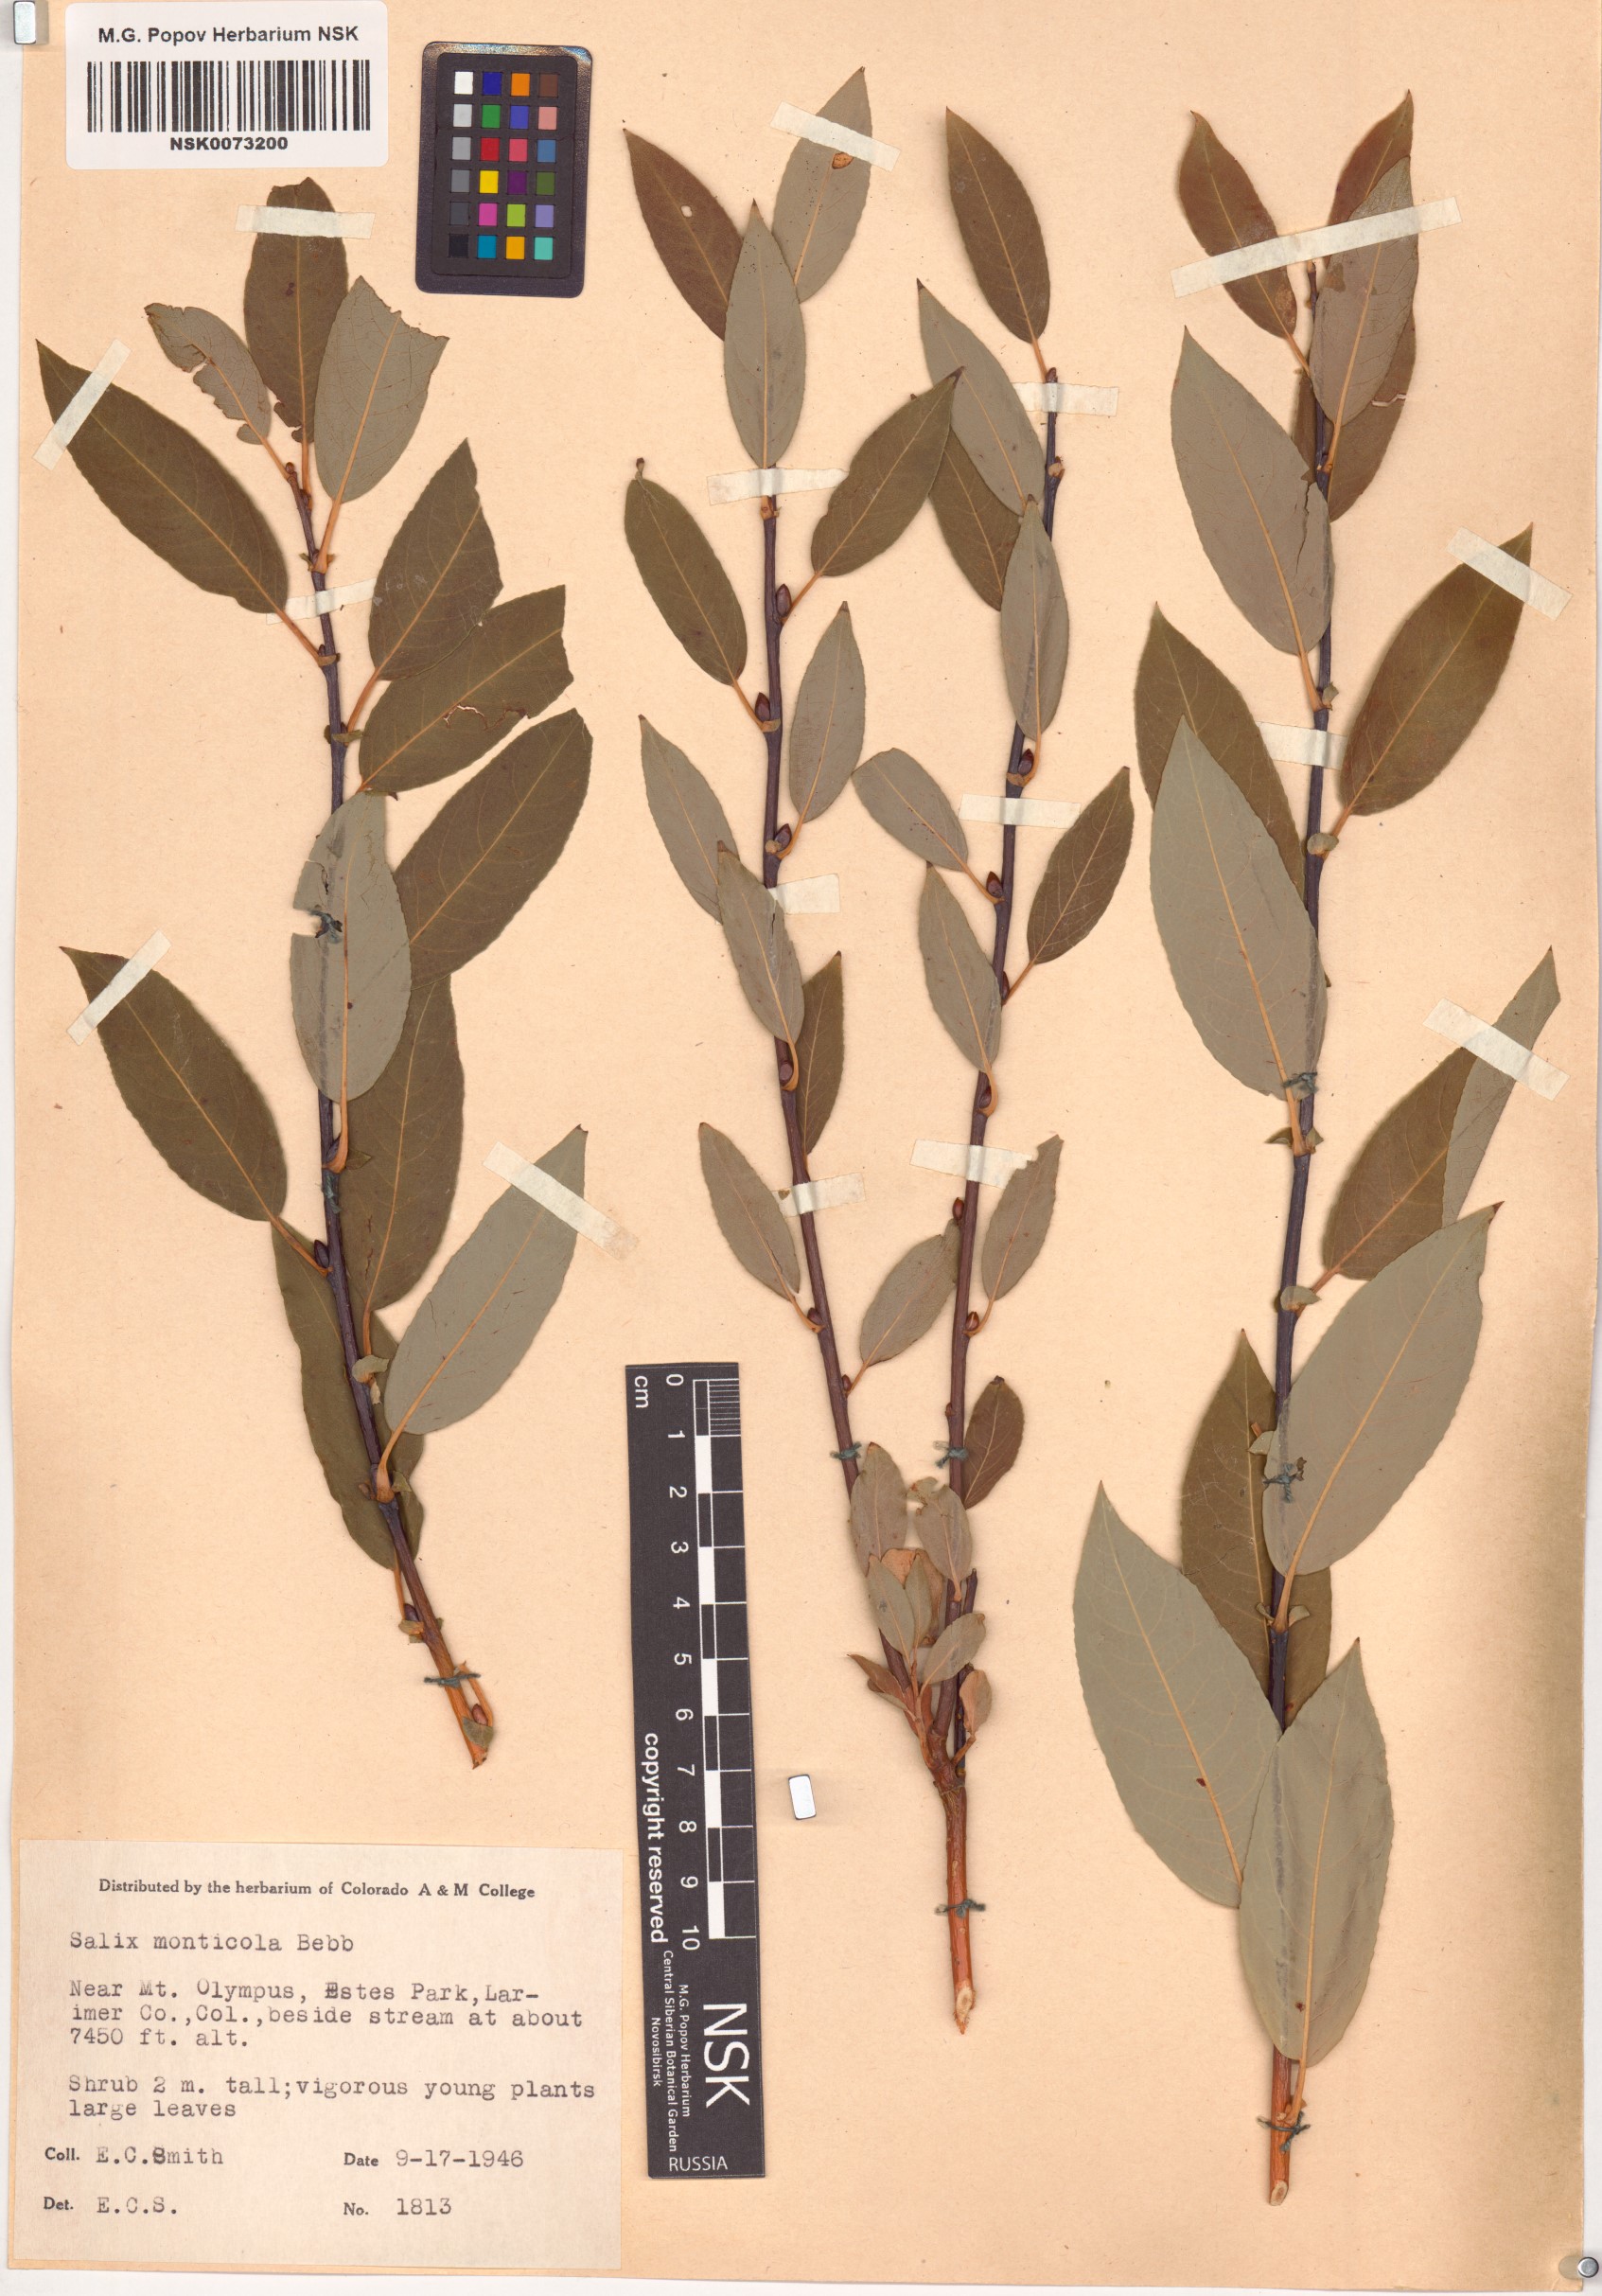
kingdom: Plantae
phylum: Tracheophyta
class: Magnoliopsida
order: Malpighiales
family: Salicaceae
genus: Salix
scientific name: Salix monticola
